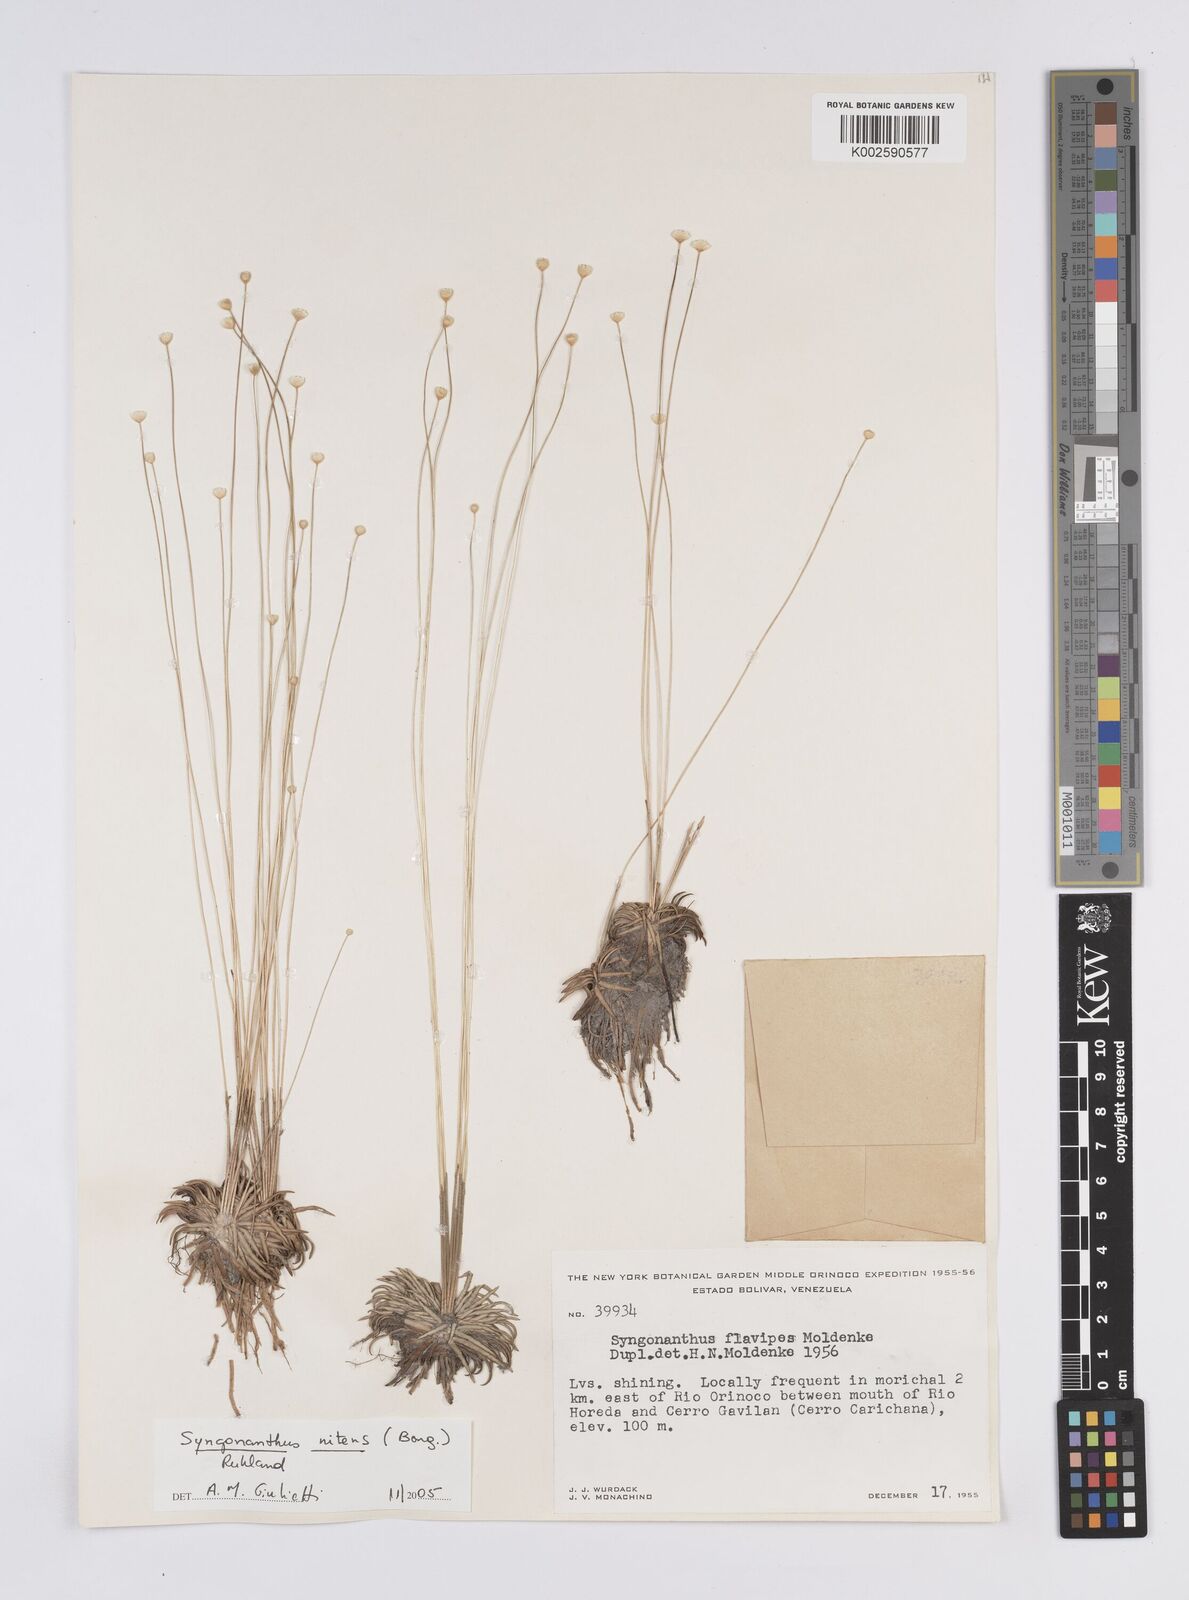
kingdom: Plantae
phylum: Tracheophyta
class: Liliopsida
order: Poales
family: Eriocaulaceae
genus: Syngonanthus
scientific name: Syngonanthus nitens
